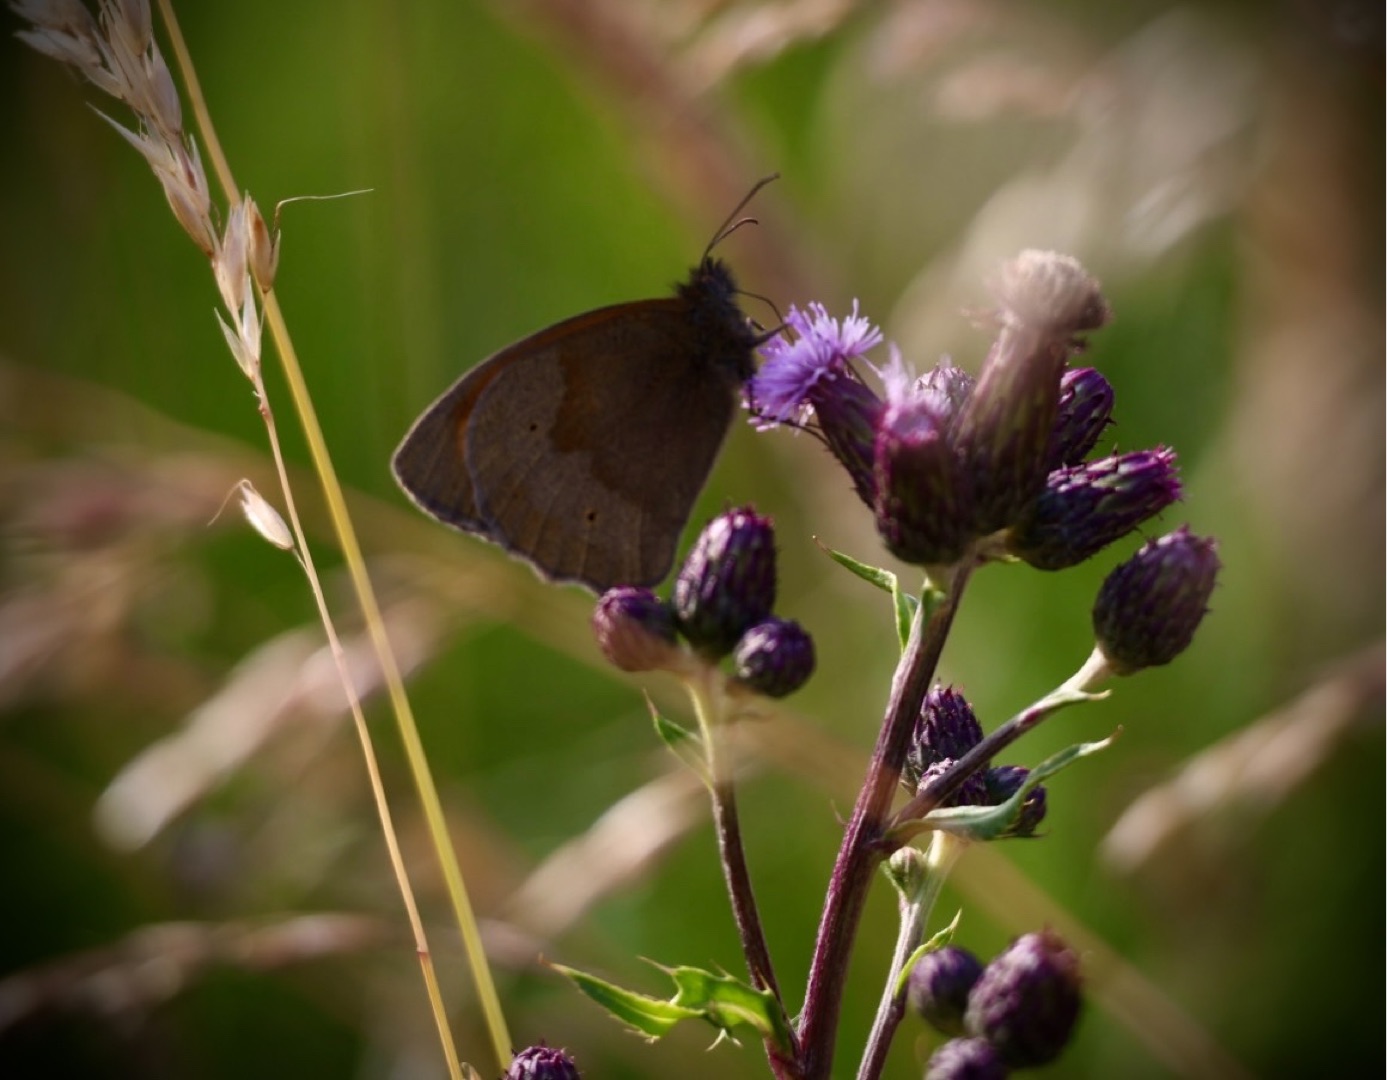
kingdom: Animalia
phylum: Arthropoda
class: Insecta
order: Lepidoptera
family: Nymphalidae
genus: Maniola
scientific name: Maniola jurtina
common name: Græsrandøje
